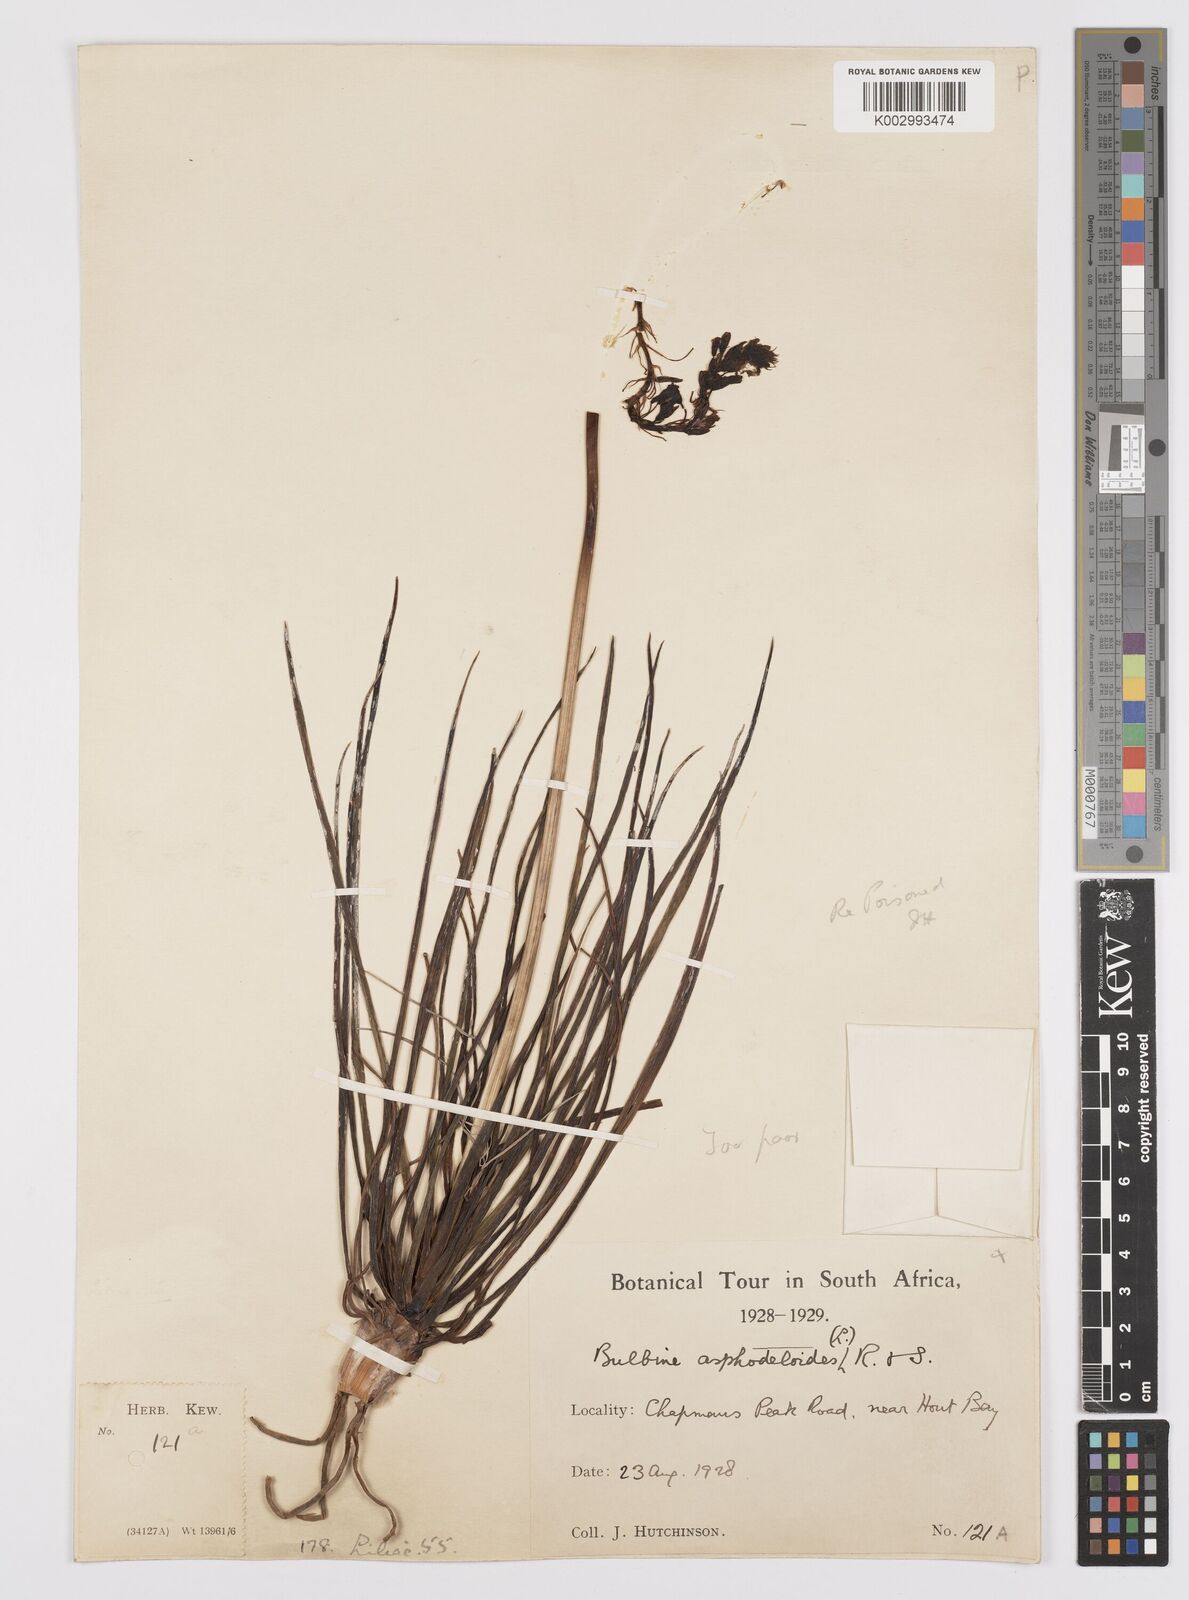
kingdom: Plantae
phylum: Tracheophyta
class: Liliopsida
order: Asparagales
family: Asphodelaceae
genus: Bulbine
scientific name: Bulbine lagopus
